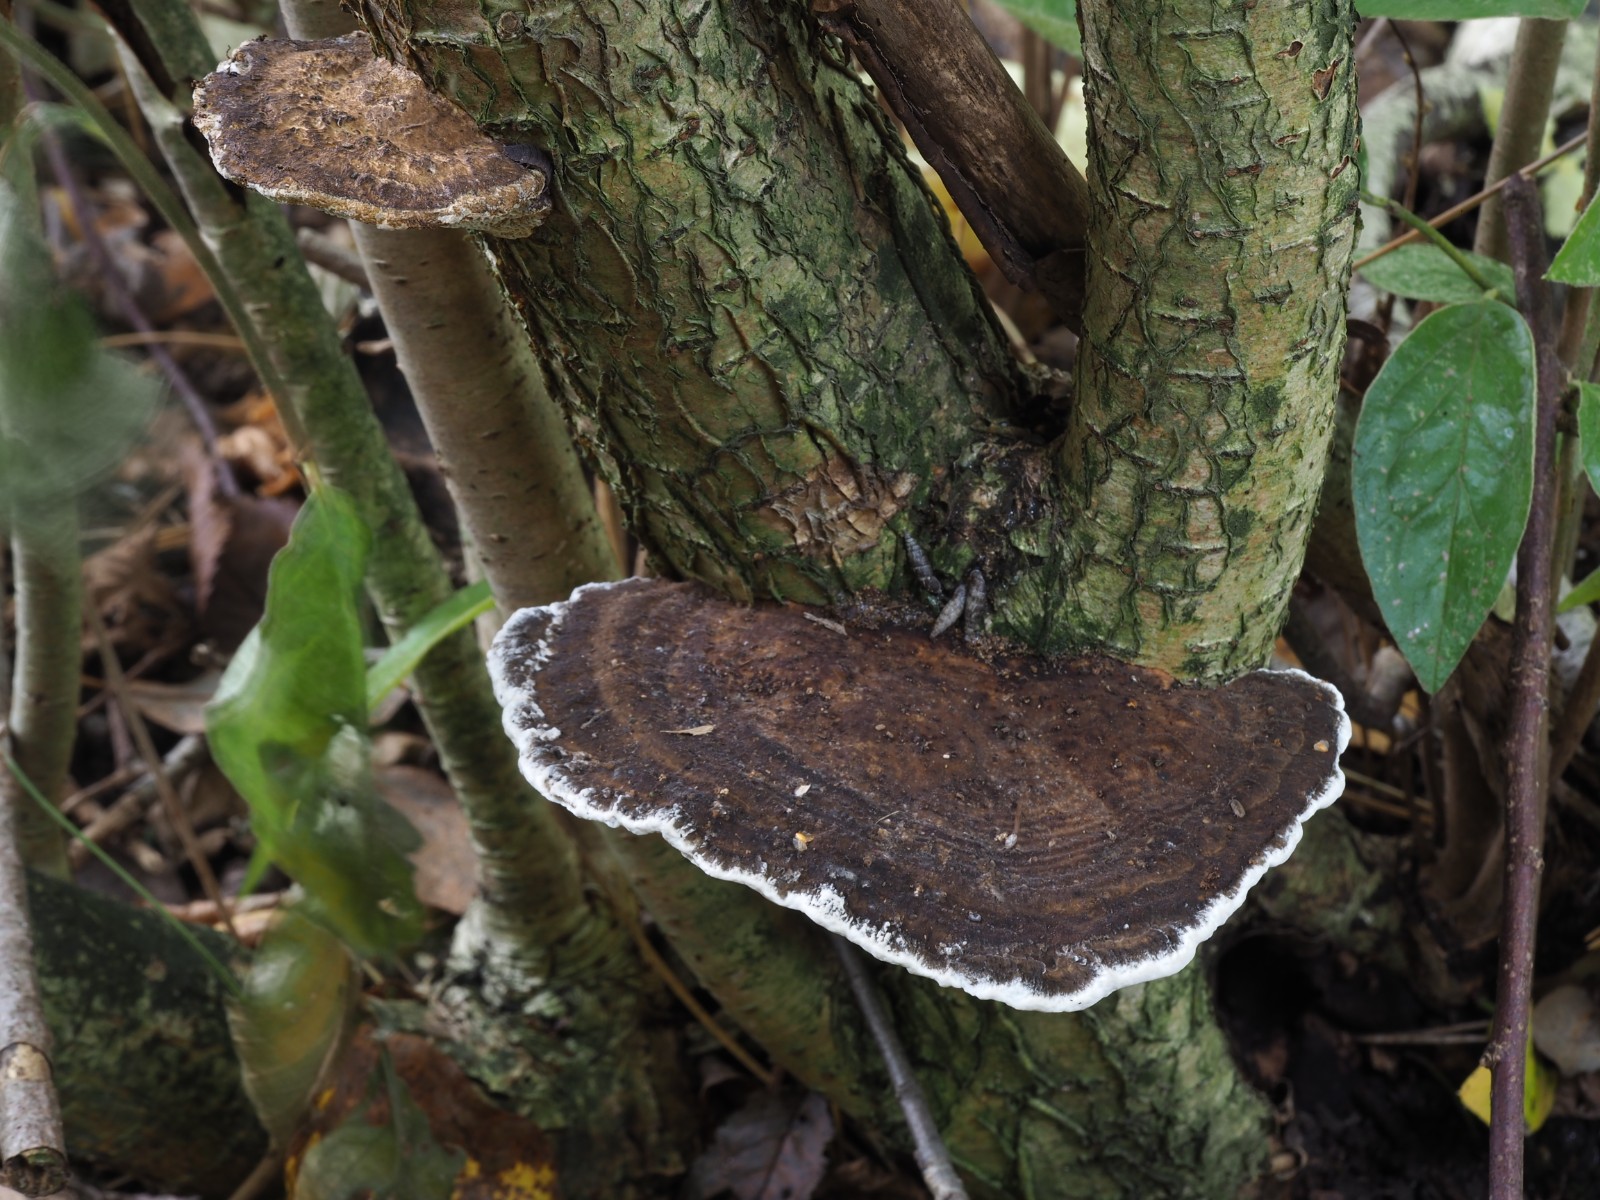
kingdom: Fungi
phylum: Basidiomycota
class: Agaricomycetes
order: Polyporales
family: Polyporaceae
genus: Daedaleopsis
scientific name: Daedaleopsis confragosa
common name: rødmende læderporesvamp
